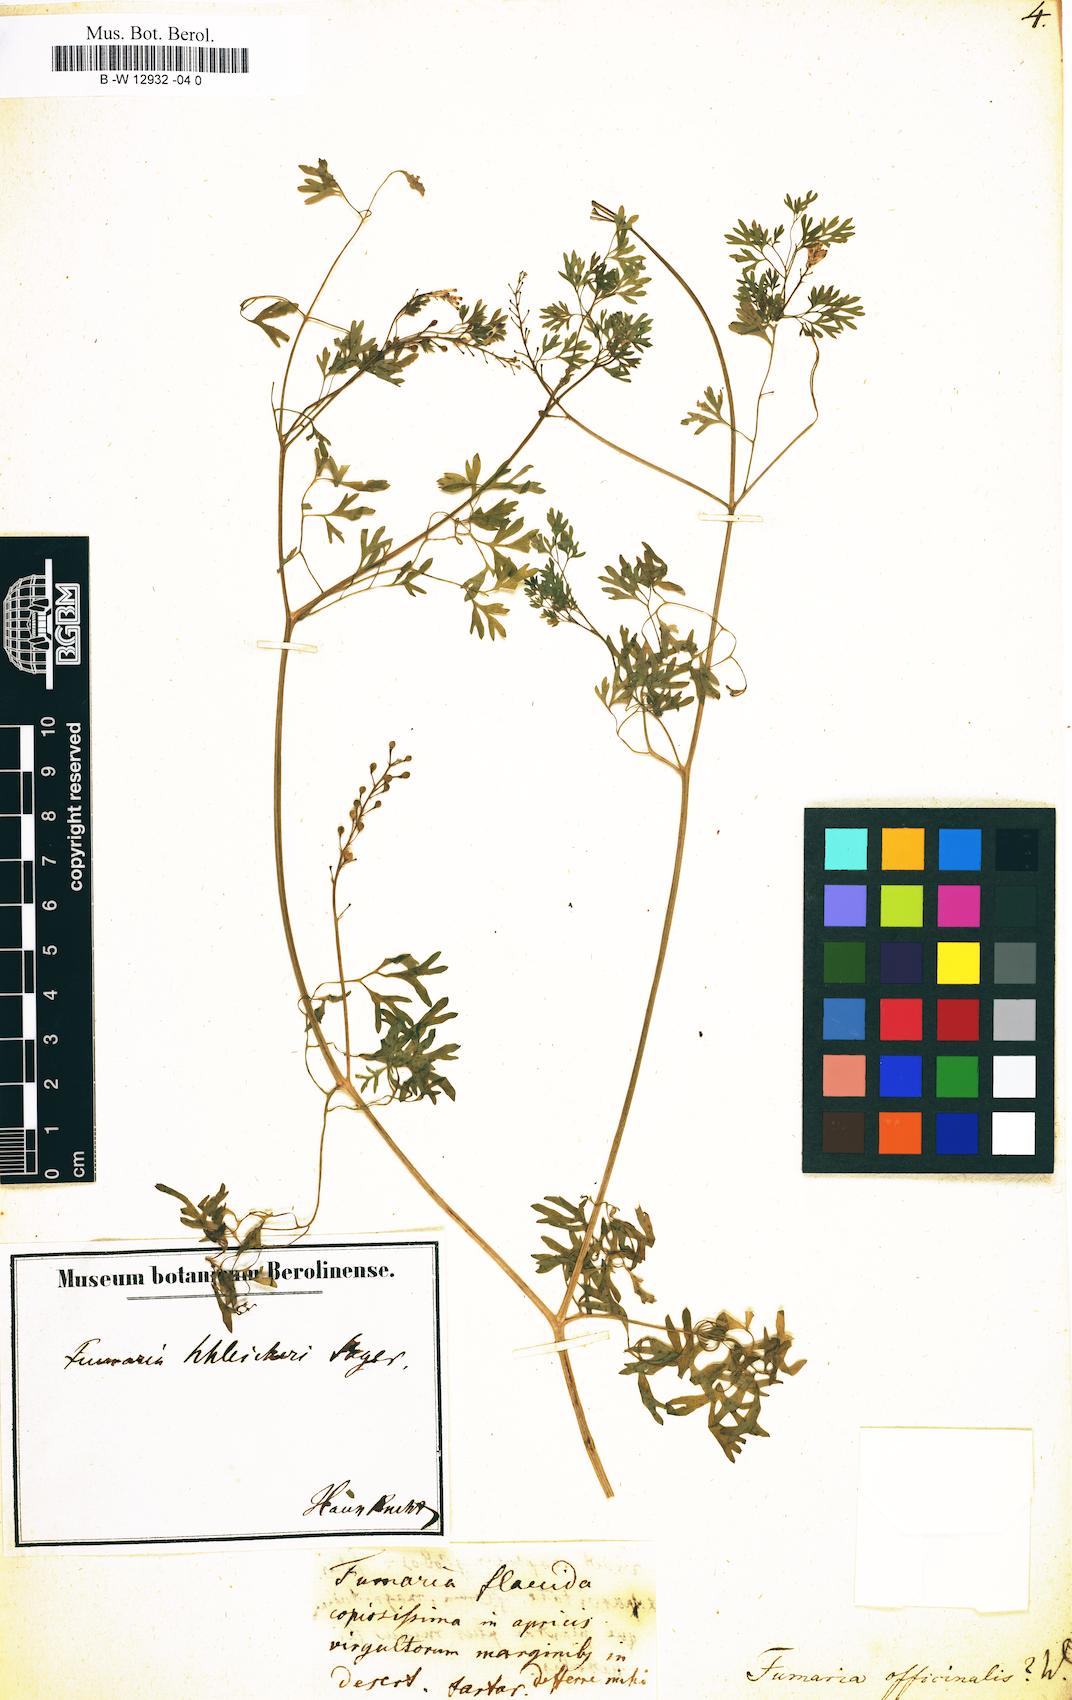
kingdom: Plantae
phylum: Tracheophyta
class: Magnoliopsida
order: Ranunculales
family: Papaveraceae
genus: Fumaria
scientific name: Fumaria officinalis
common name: Common fumitory
